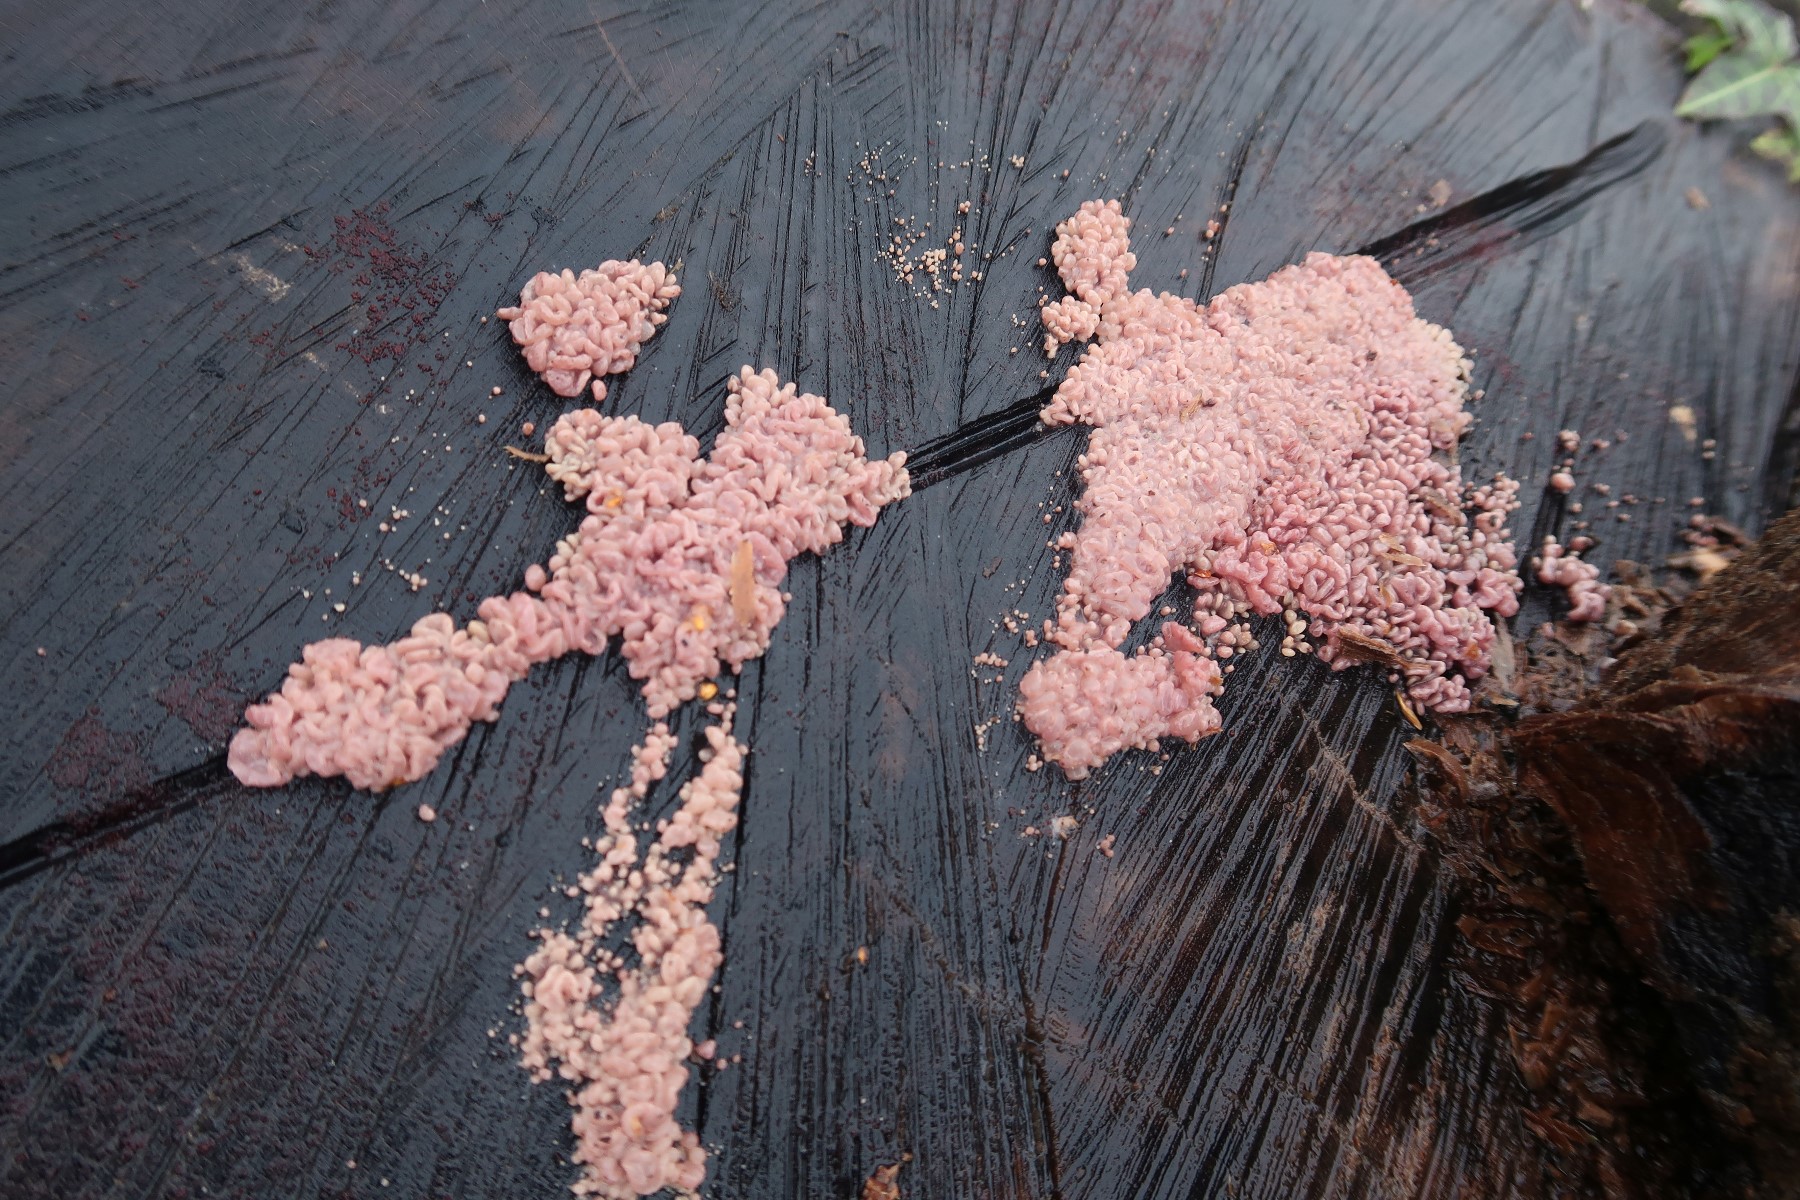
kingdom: Fungi
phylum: Ascomycota
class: Leotiomycetes
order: Helotiales
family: Gelatinodiscaceae
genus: Ascocoryne
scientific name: Ascocoryne sarcoides
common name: rødlilla sejskive
